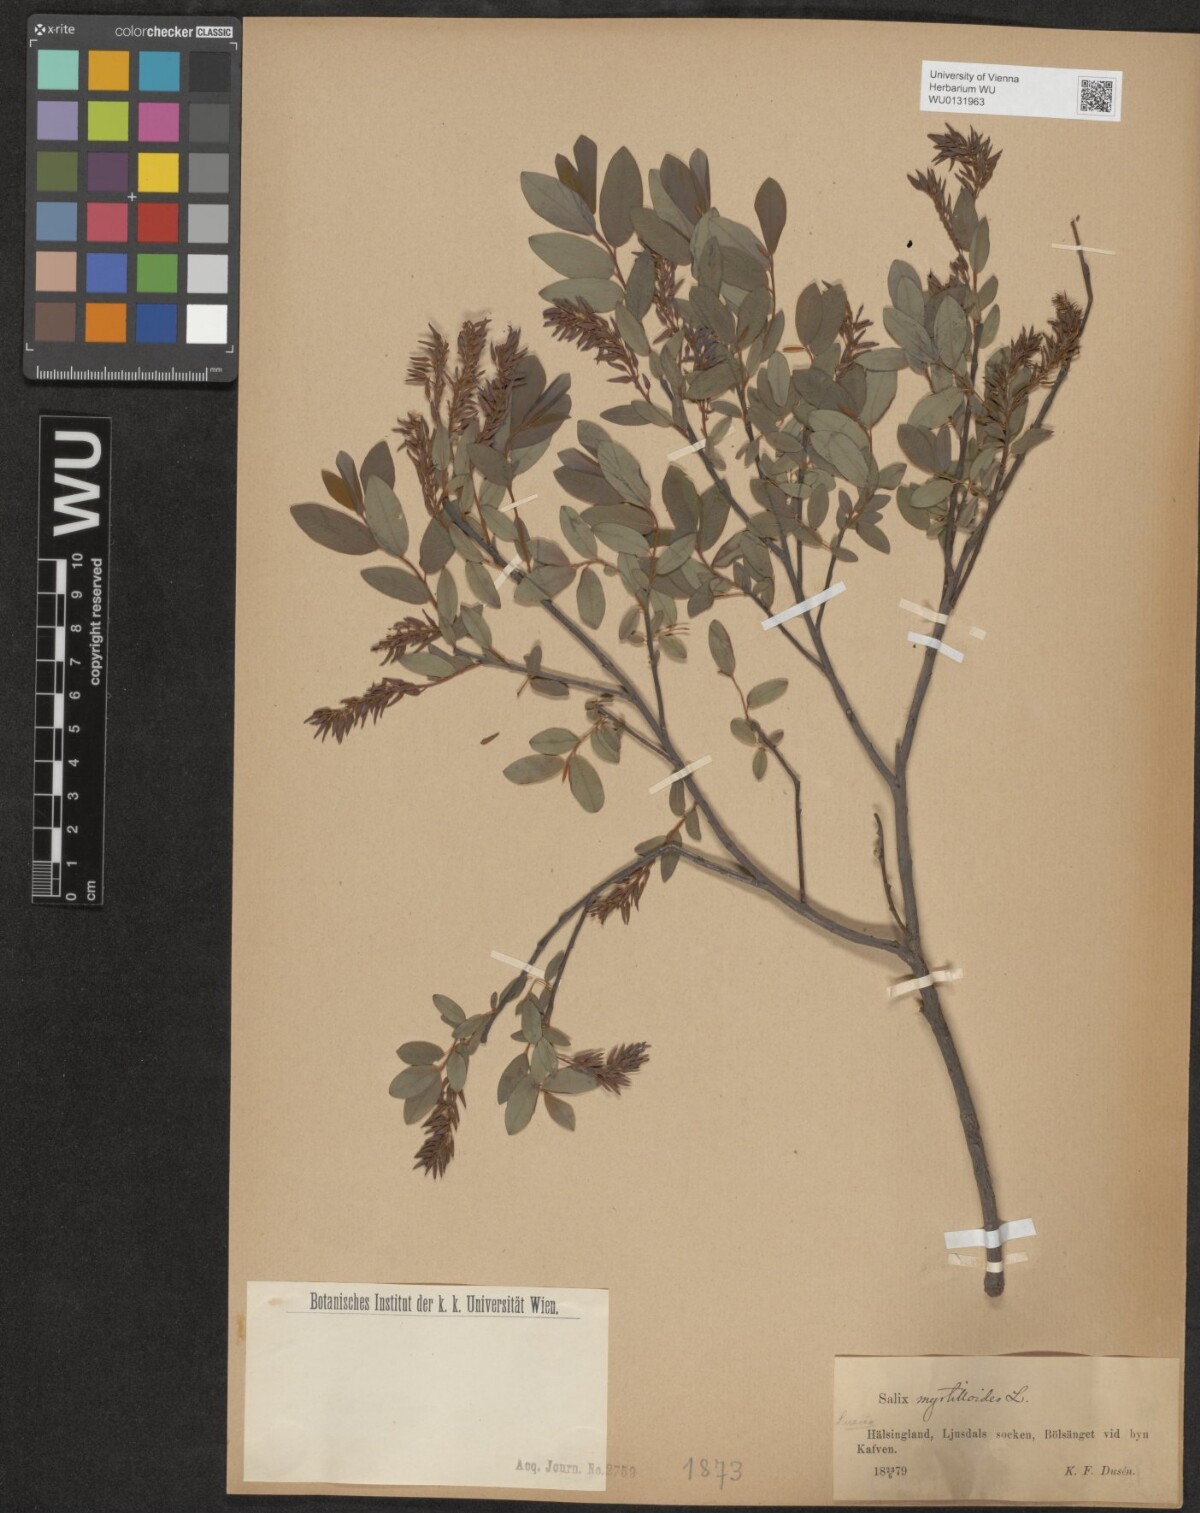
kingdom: Plantae
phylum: Tracheophyta
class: Magnoliopsida
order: Malpighiales
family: Salicaceae
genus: Salix
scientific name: Salix myrtilloides
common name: Myrtle-leaved willow
